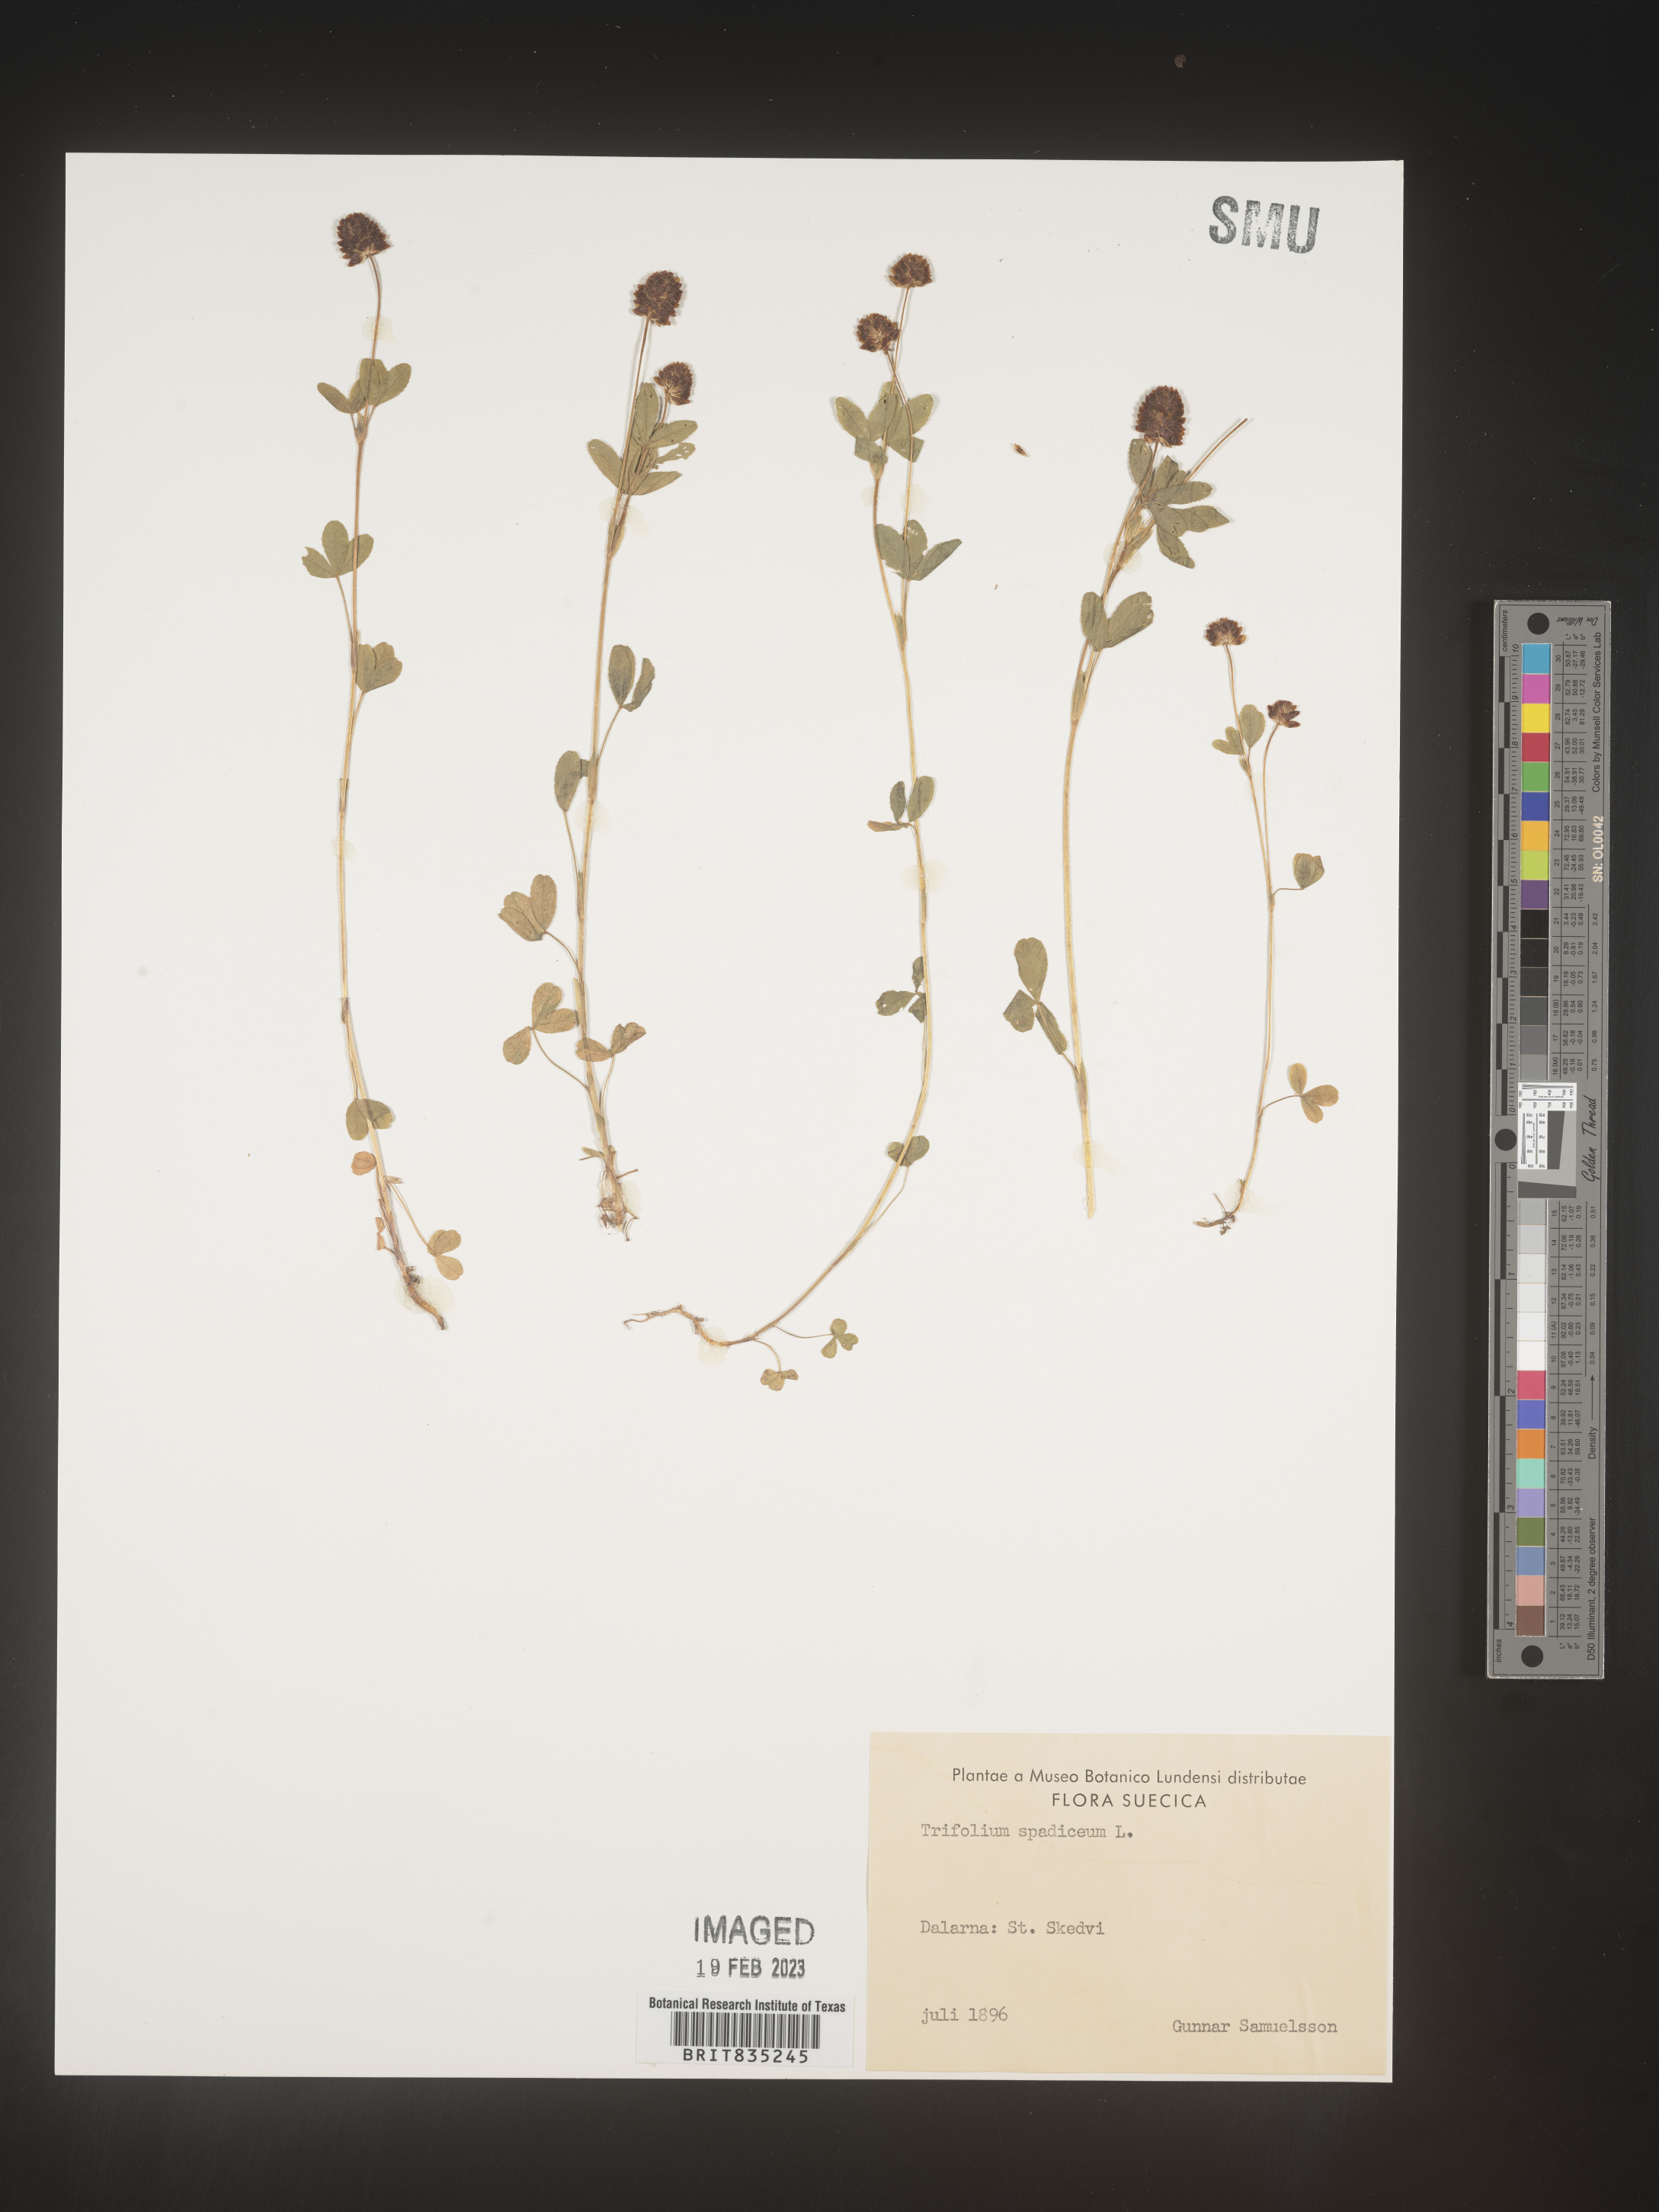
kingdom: Plantae
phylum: Tracheophyta
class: Magnoliopsida
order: Fabales
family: Fabaceae
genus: Trifolium
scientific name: Trifolium
